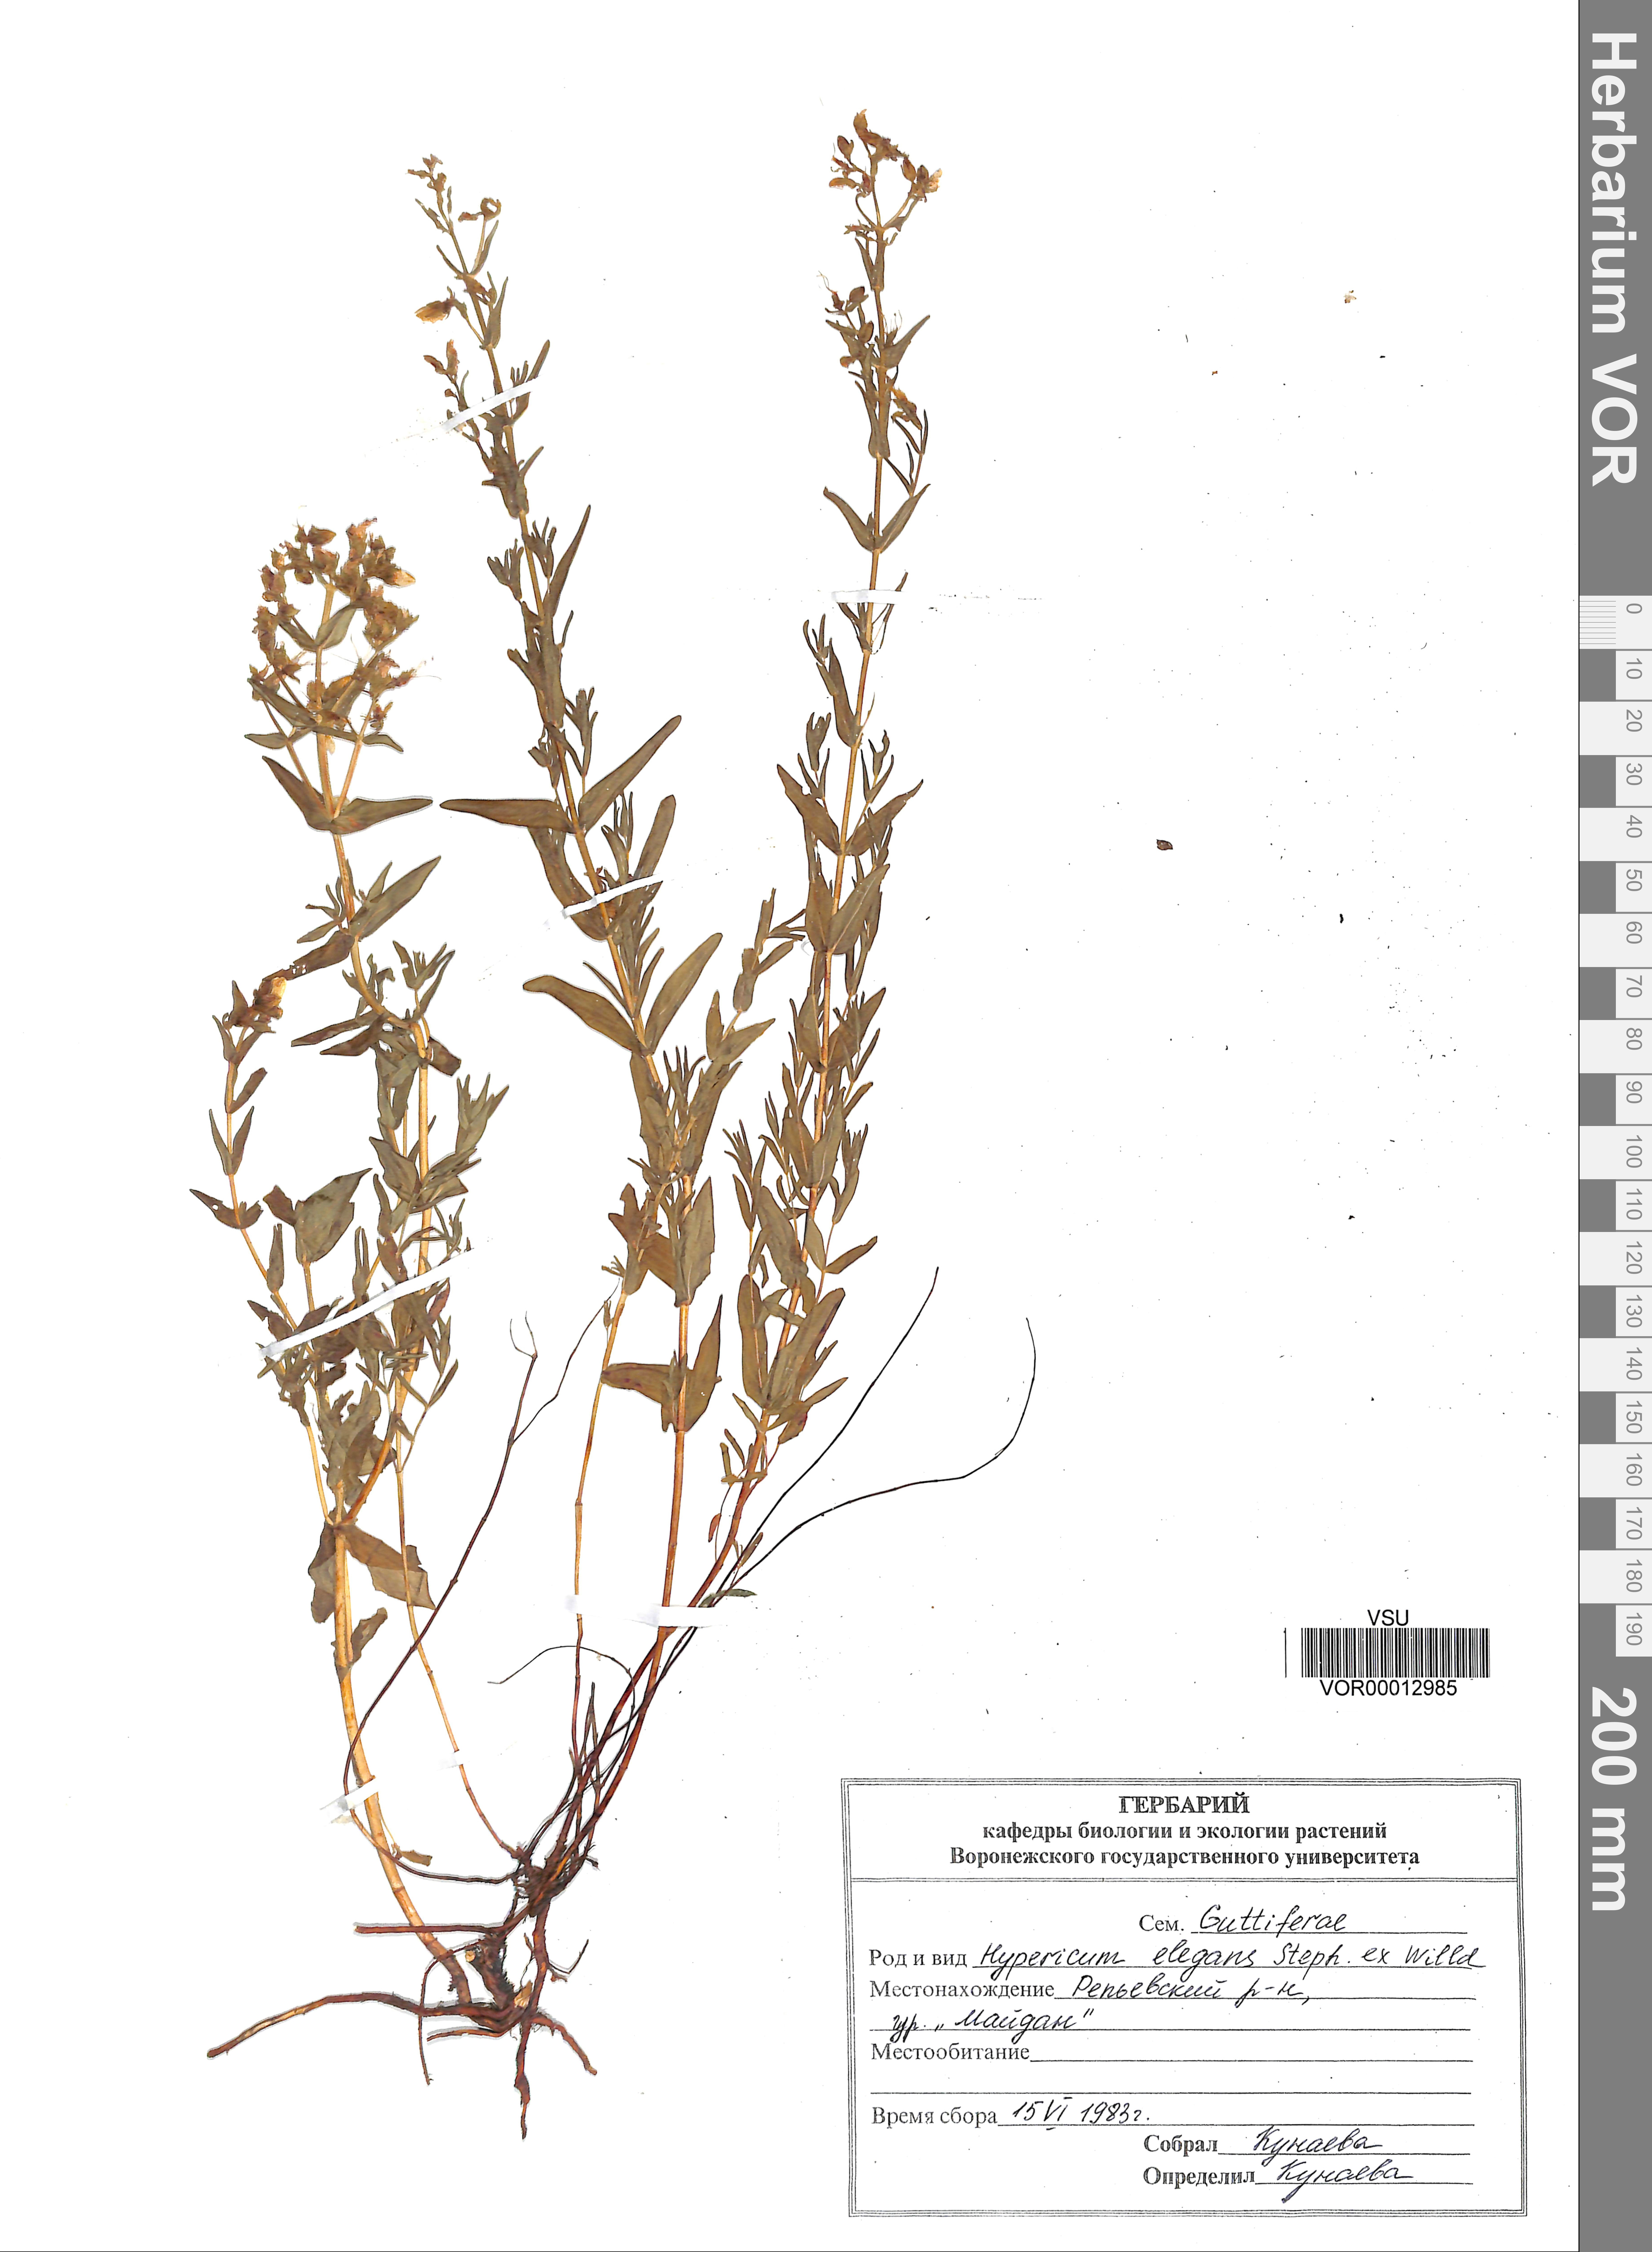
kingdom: Plantae
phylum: Tracheophyta
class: Magnoliopsida
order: Malpighiales
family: Hypericaceae
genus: Hypericum
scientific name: Hypericum elegans
